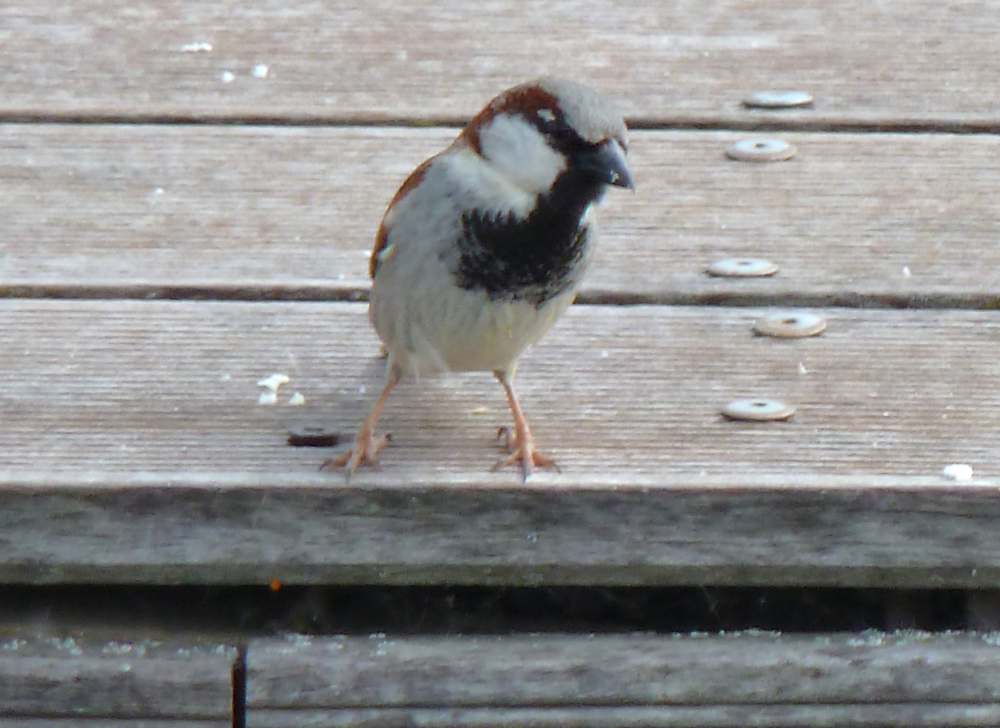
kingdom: Animalia
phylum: Chordata
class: Aves
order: Passeriformes
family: Passeridae
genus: Passer
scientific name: Passer domesticus
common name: House sparrow
